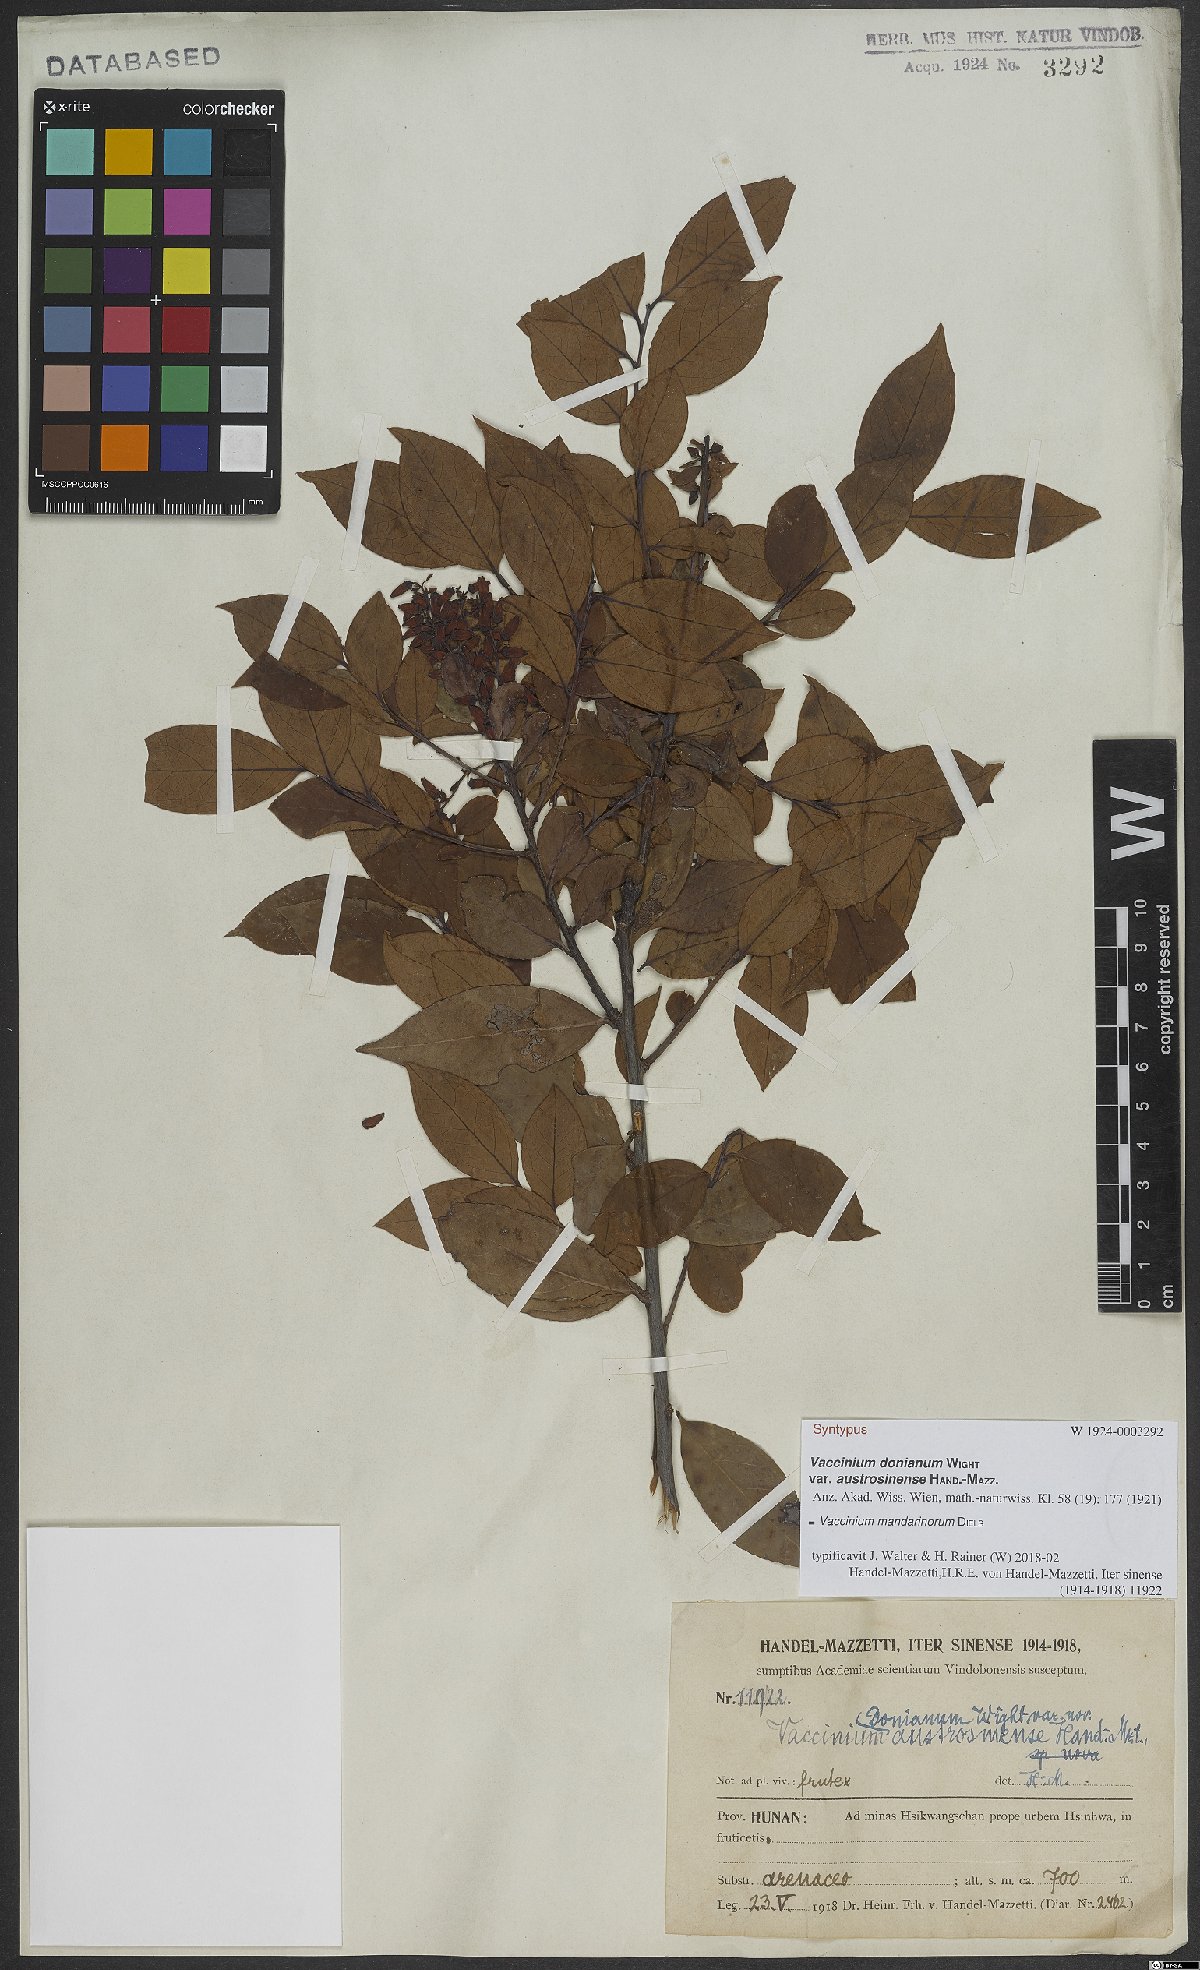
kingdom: Plantae
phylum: Tracheophyta
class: Magnoliopsida
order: Ericales
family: Ericaceae
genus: Vaccinium
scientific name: Vaccinium mandarinorum
